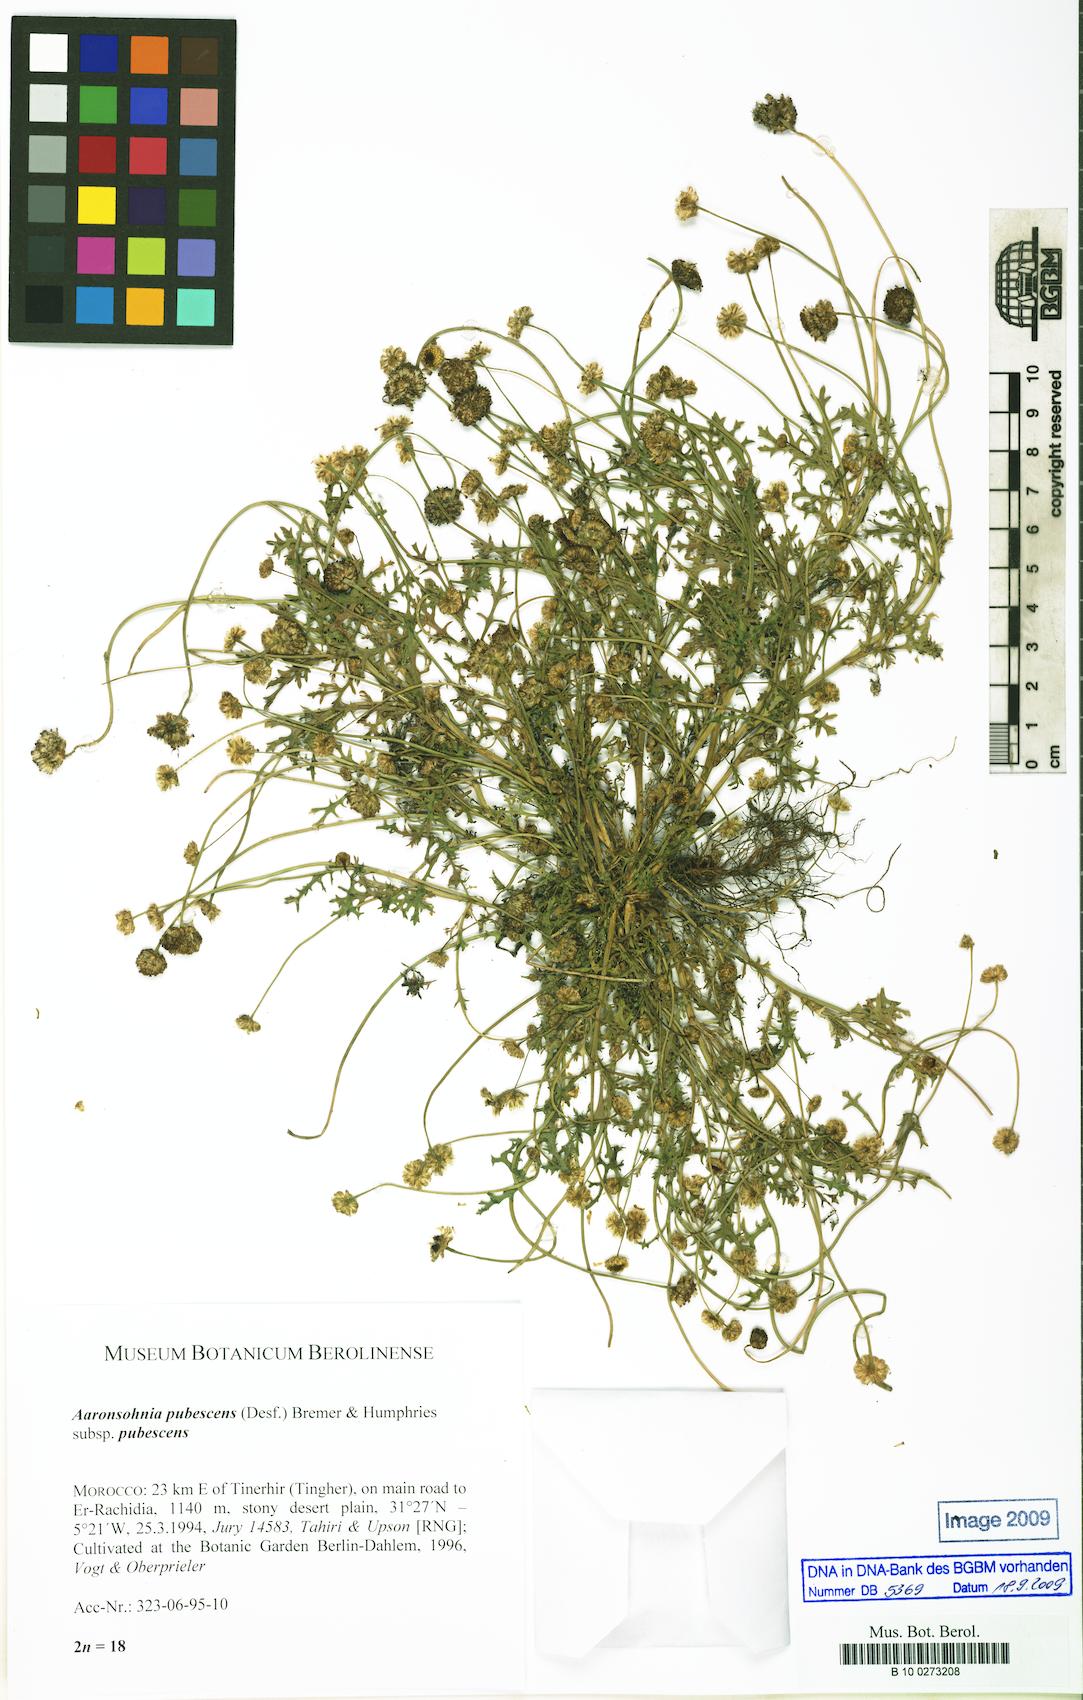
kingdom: Plantae
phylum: Tracheophyta
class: Magnoliopsida
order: Asterales
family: Asteraceae
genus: Otoglyphis
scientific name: Otoglyphis pubescens
